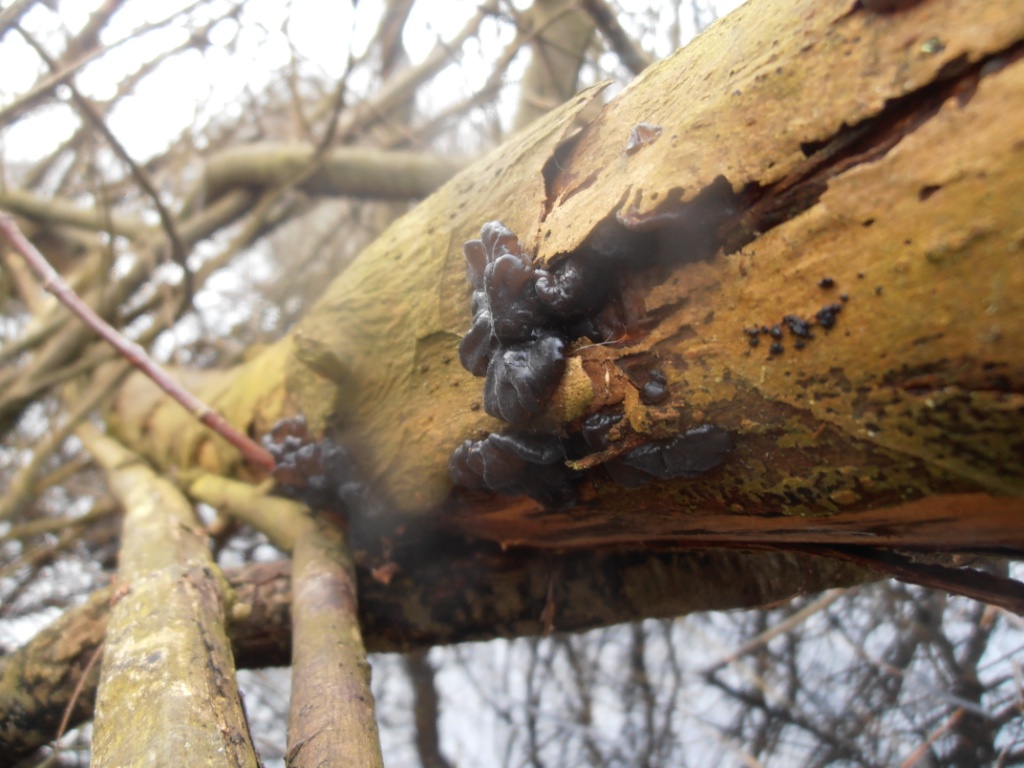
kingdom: Fungi
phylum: Basidiomycota
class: Agaricomycetes
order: Auriculariales
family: Auriculariaceae
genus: Exidia
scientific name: Exidia nigricans
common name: almindelig bævretop
